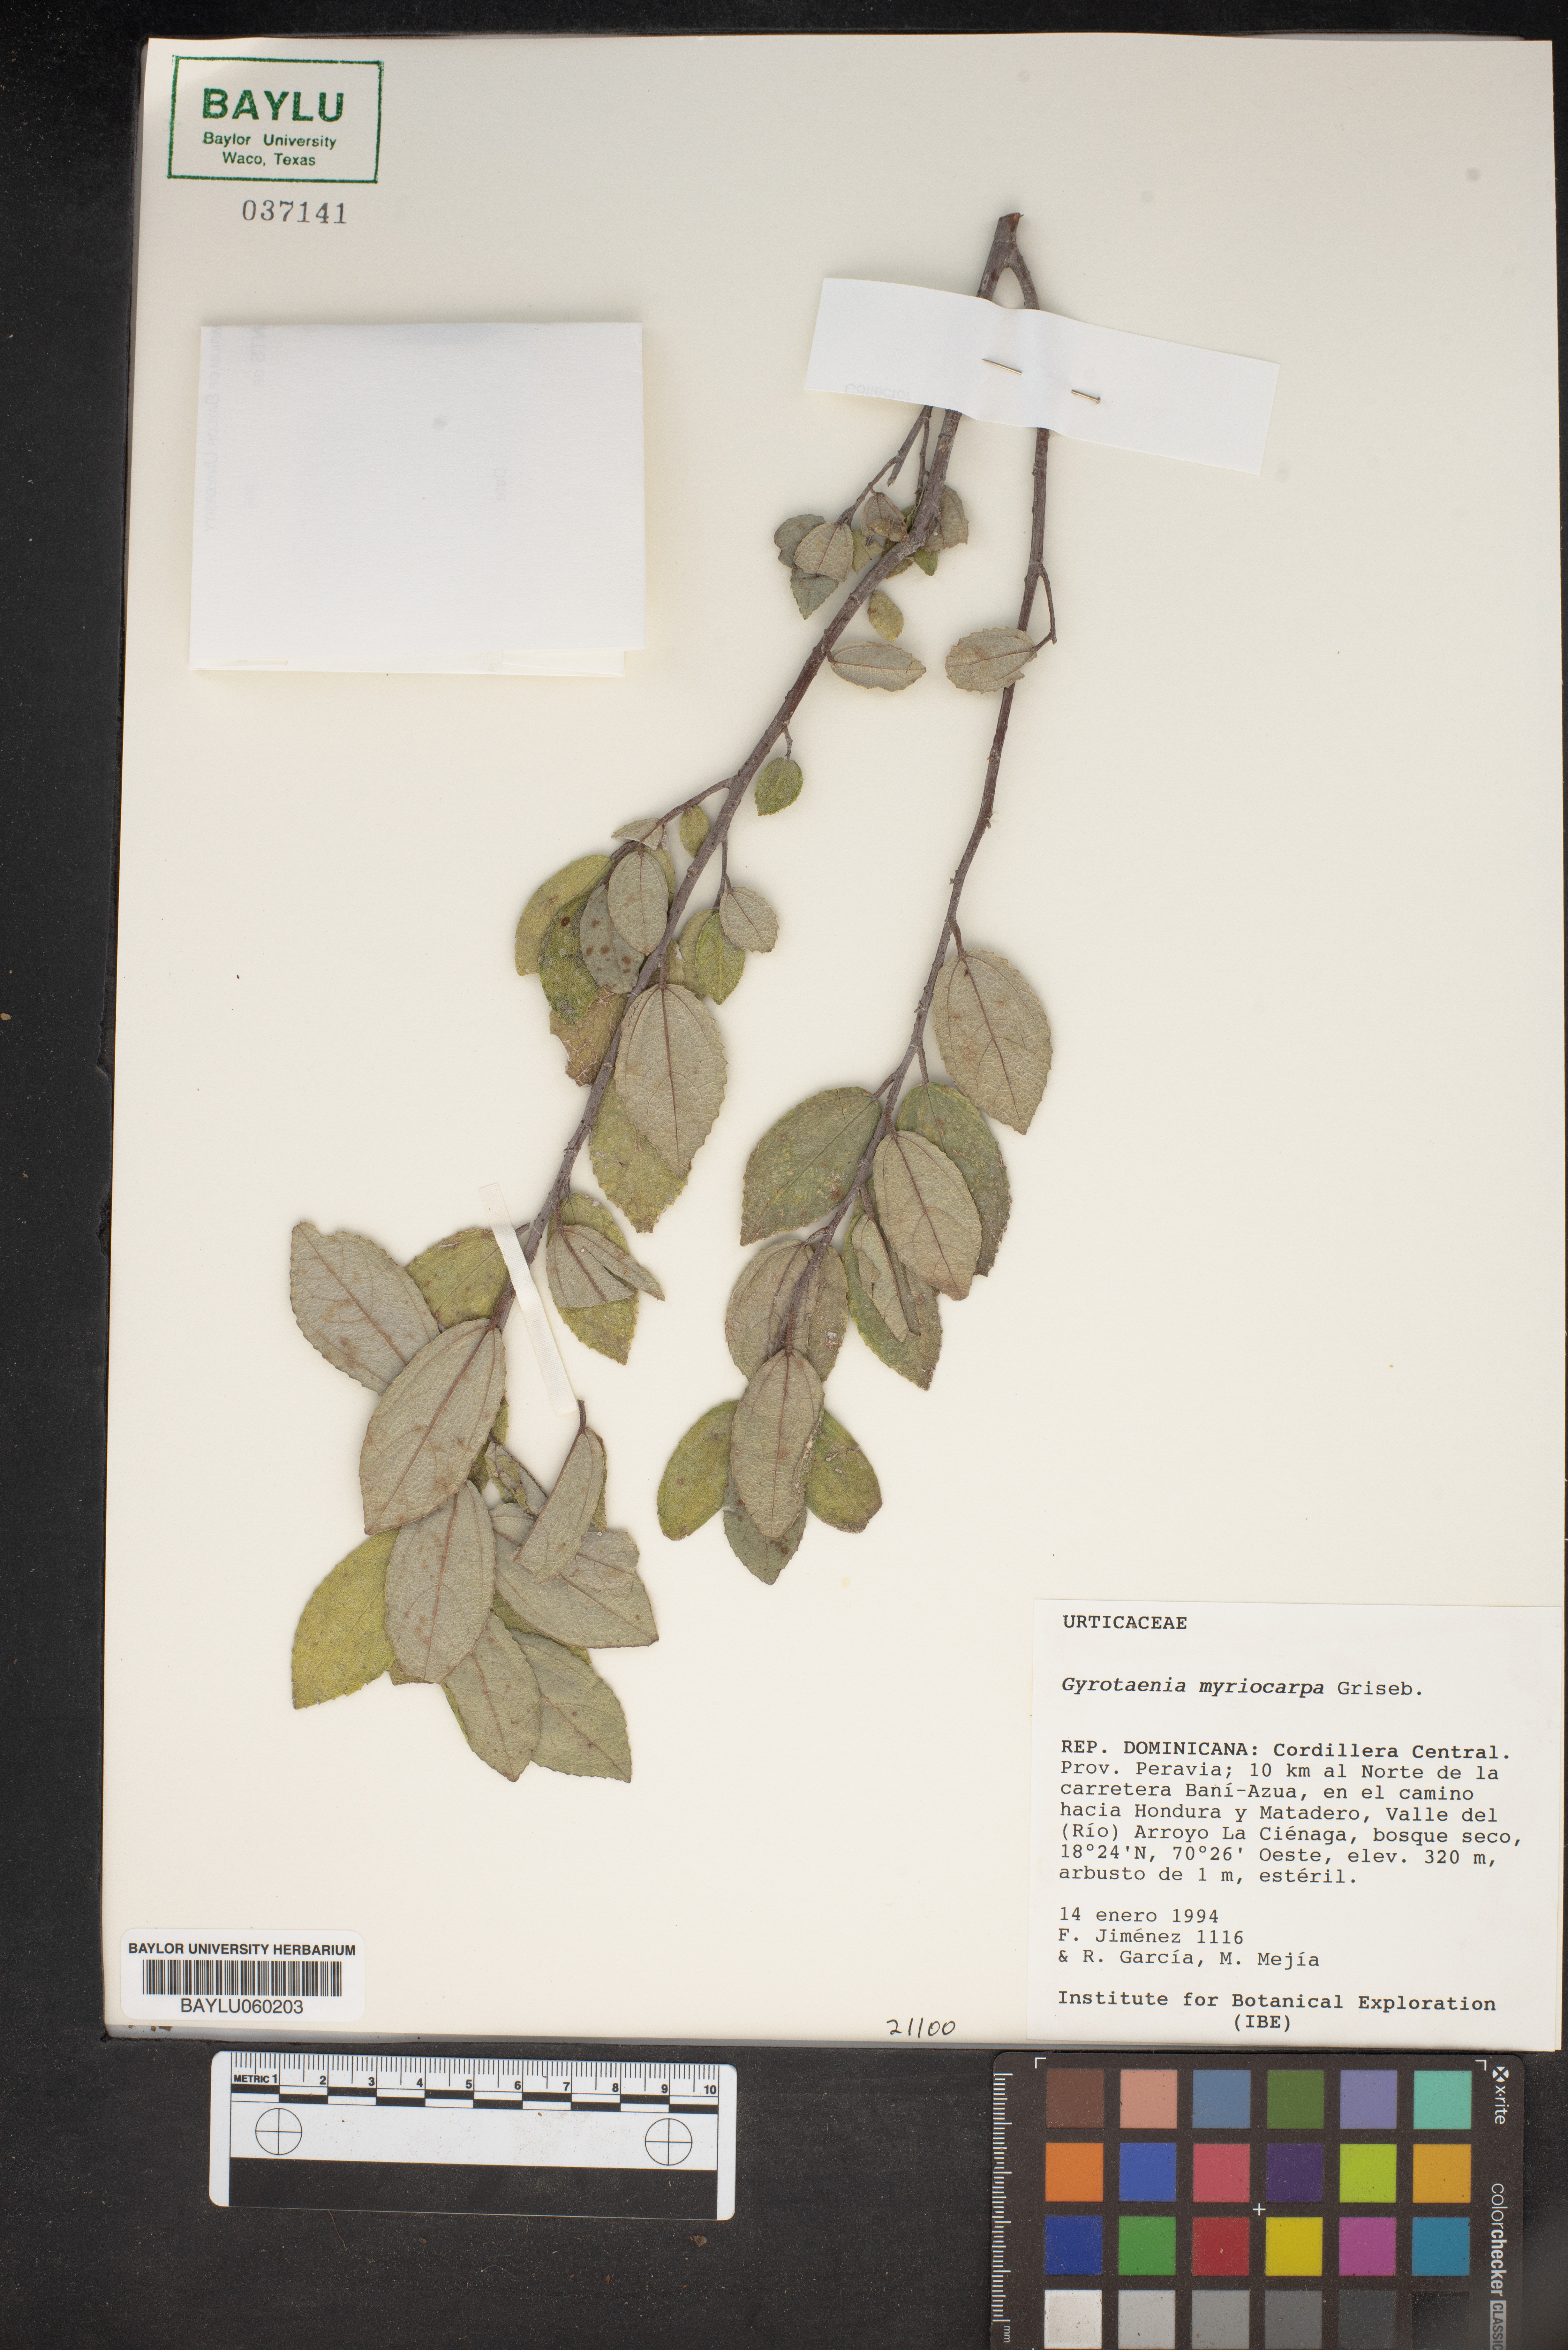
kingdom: Plantae
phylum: Tracheophyta
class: Magnoliopsida
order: Rosales
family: Urticaceae
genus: Gyrotaenia
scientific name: Gyrotaenia myriocarpa
